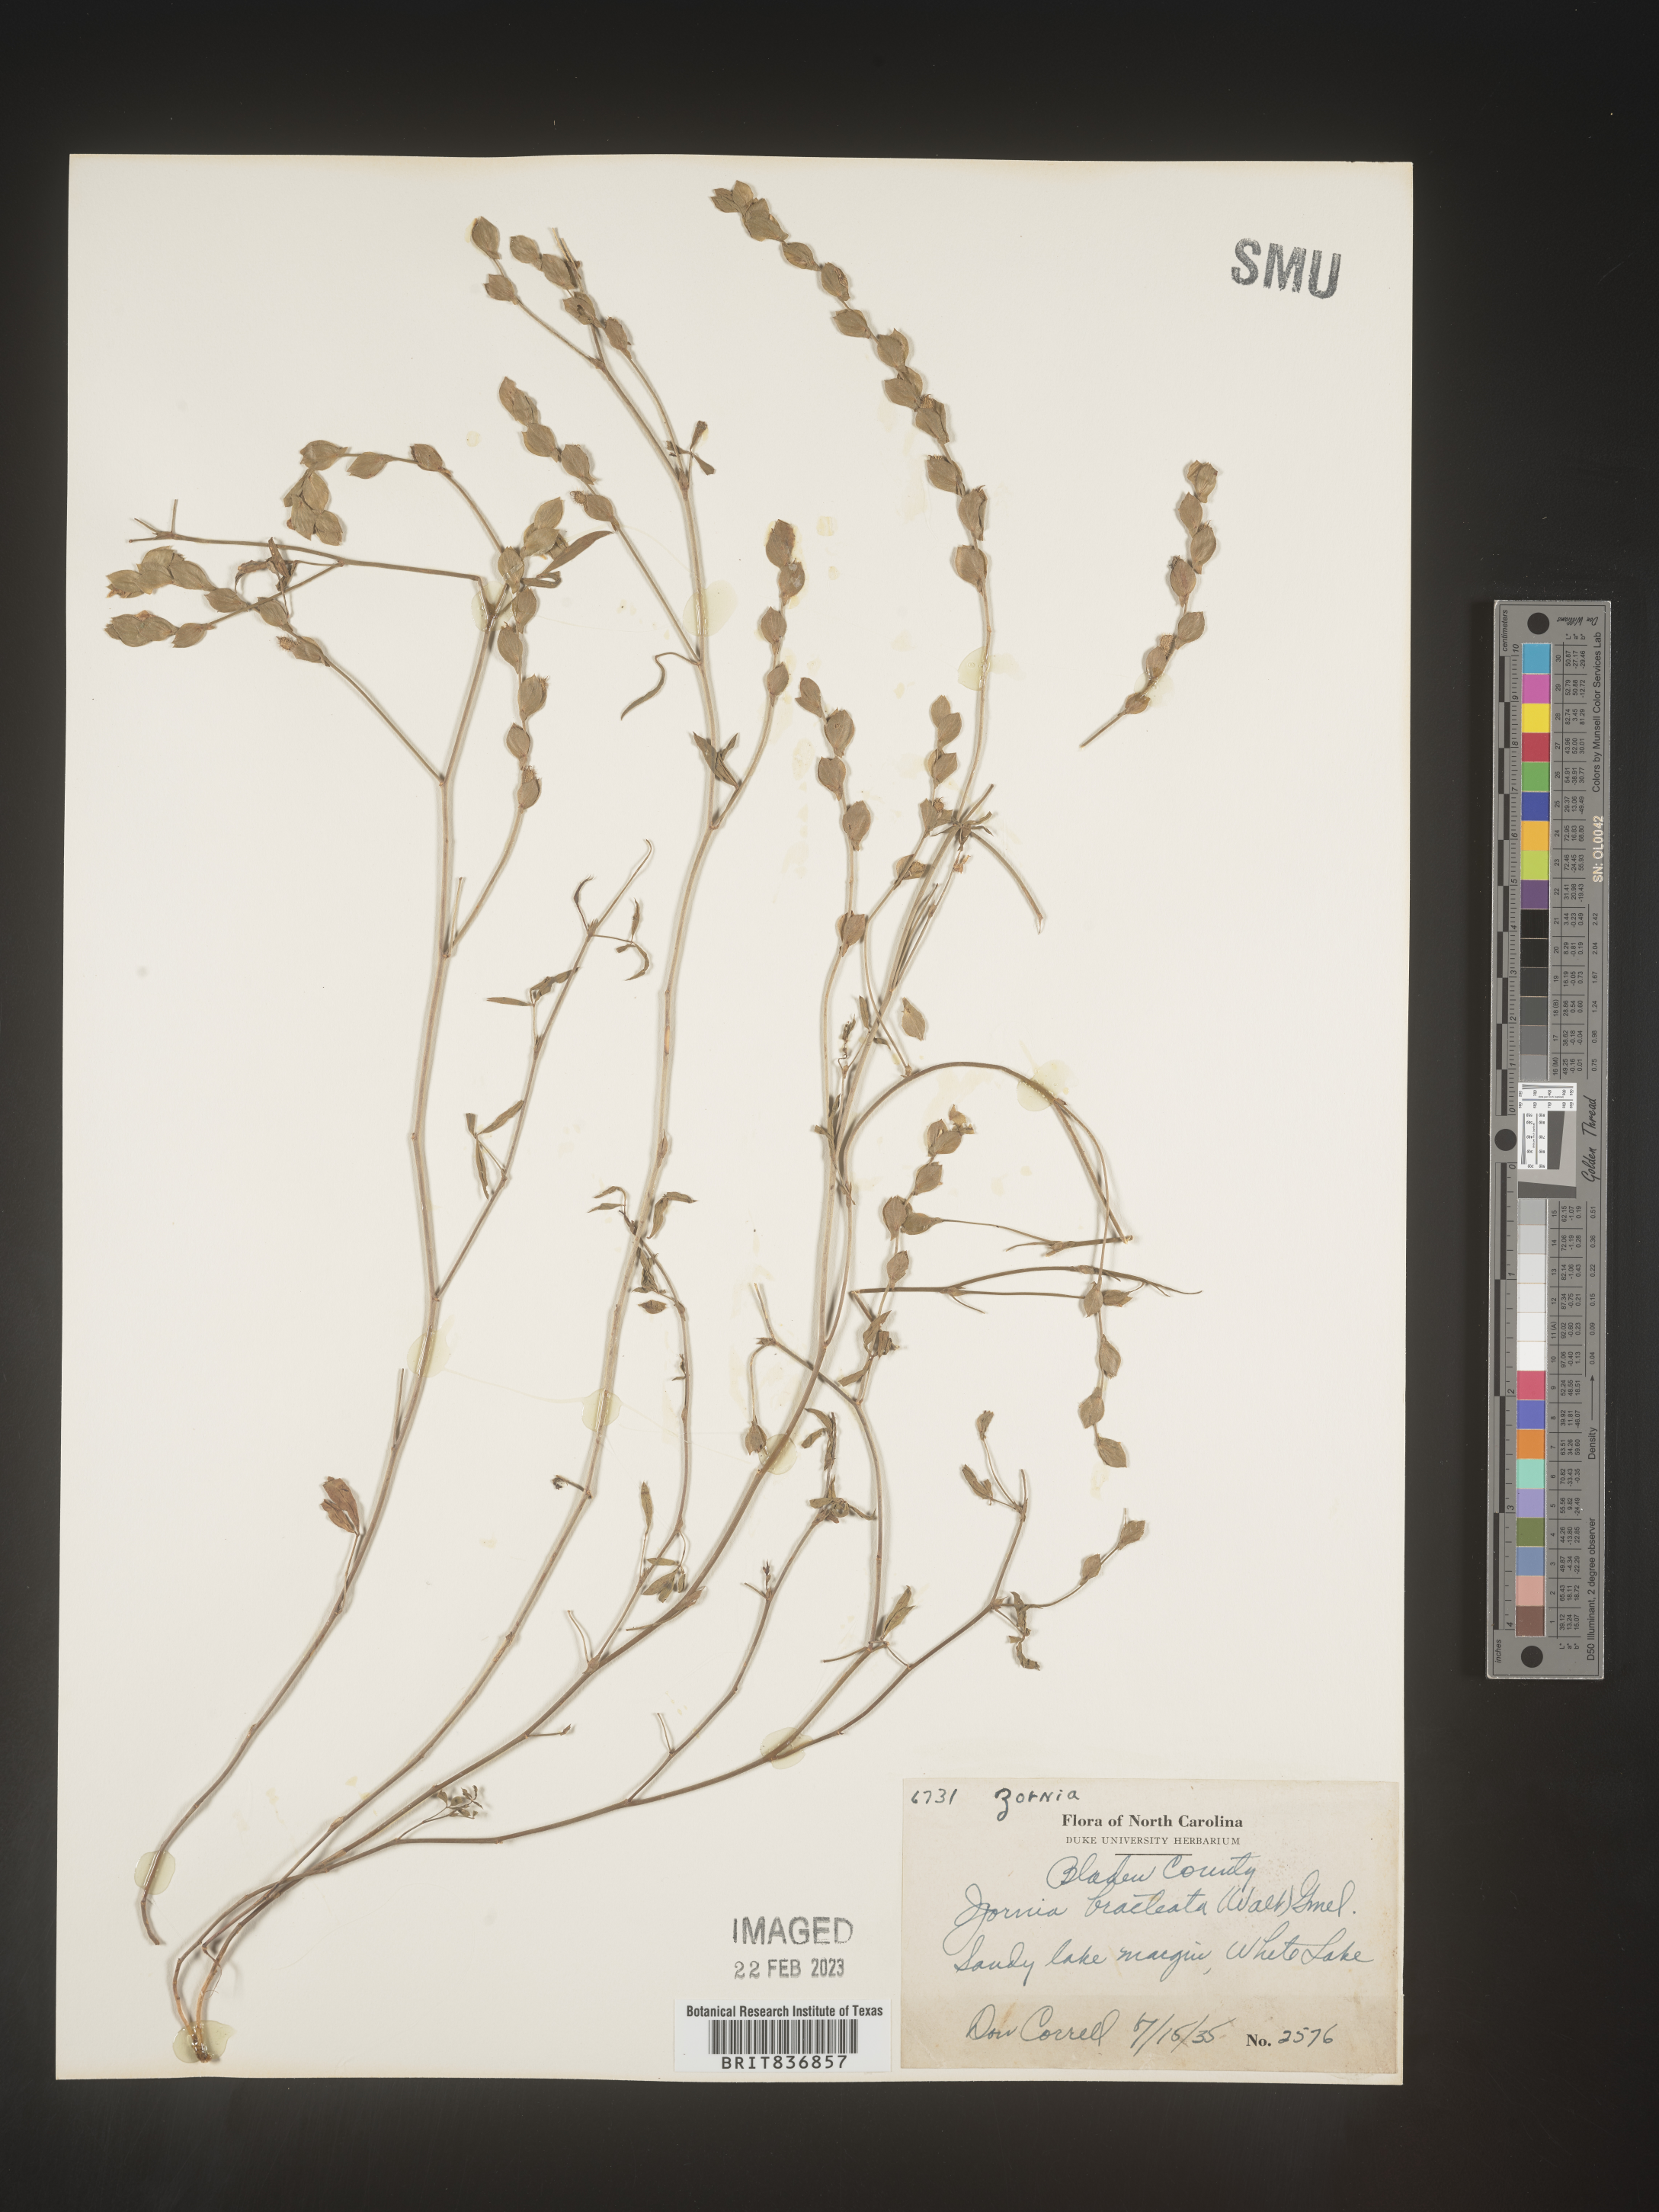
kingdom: Plantae
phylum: Tracheophyta
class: Magnoliopsida
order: Fabales
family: Fabaceae
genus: Zornia
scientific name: Zornia
